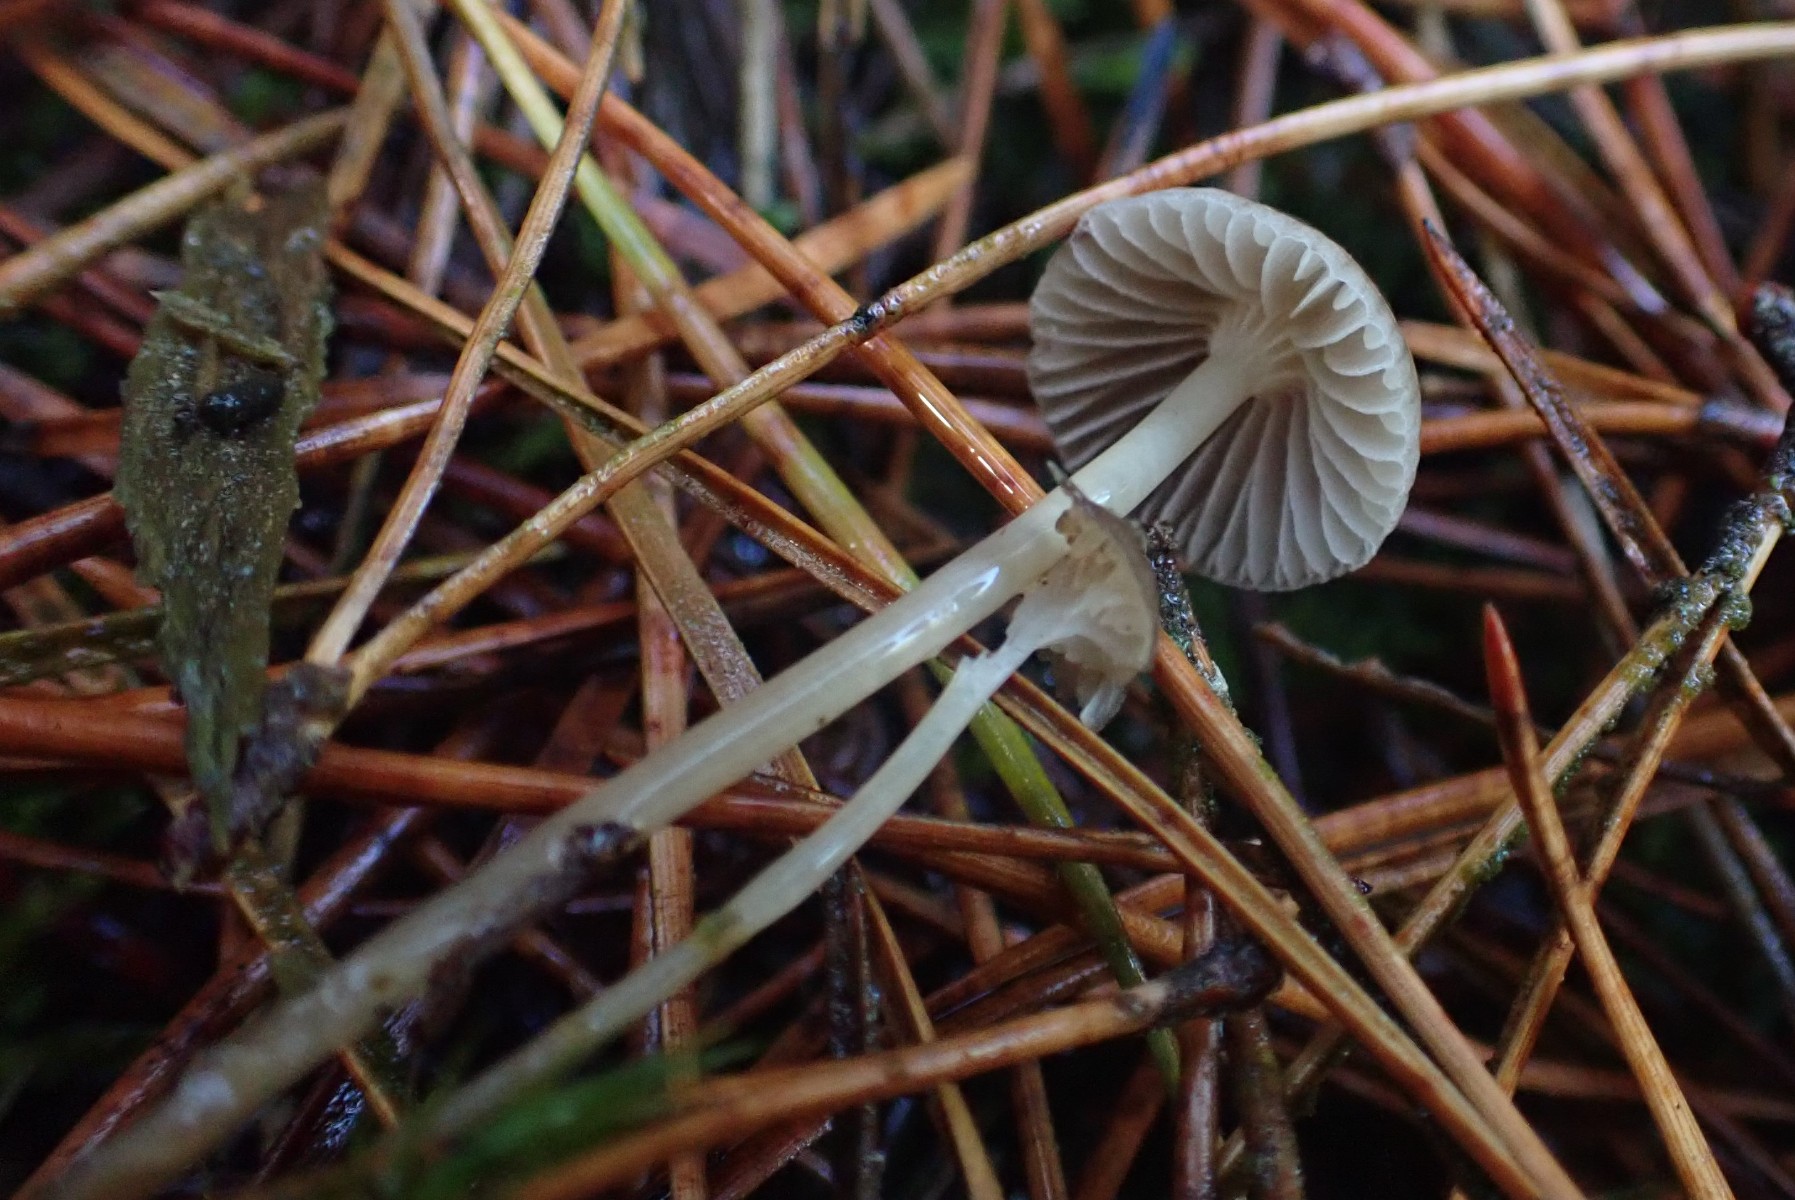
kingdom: Fungi
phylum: Basidiomycota
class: Agaricomycetes
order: Agaricales
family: Mycenaceae
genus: Mycena
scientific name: Mycena clavicularis
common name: fyrre-huesvamp
